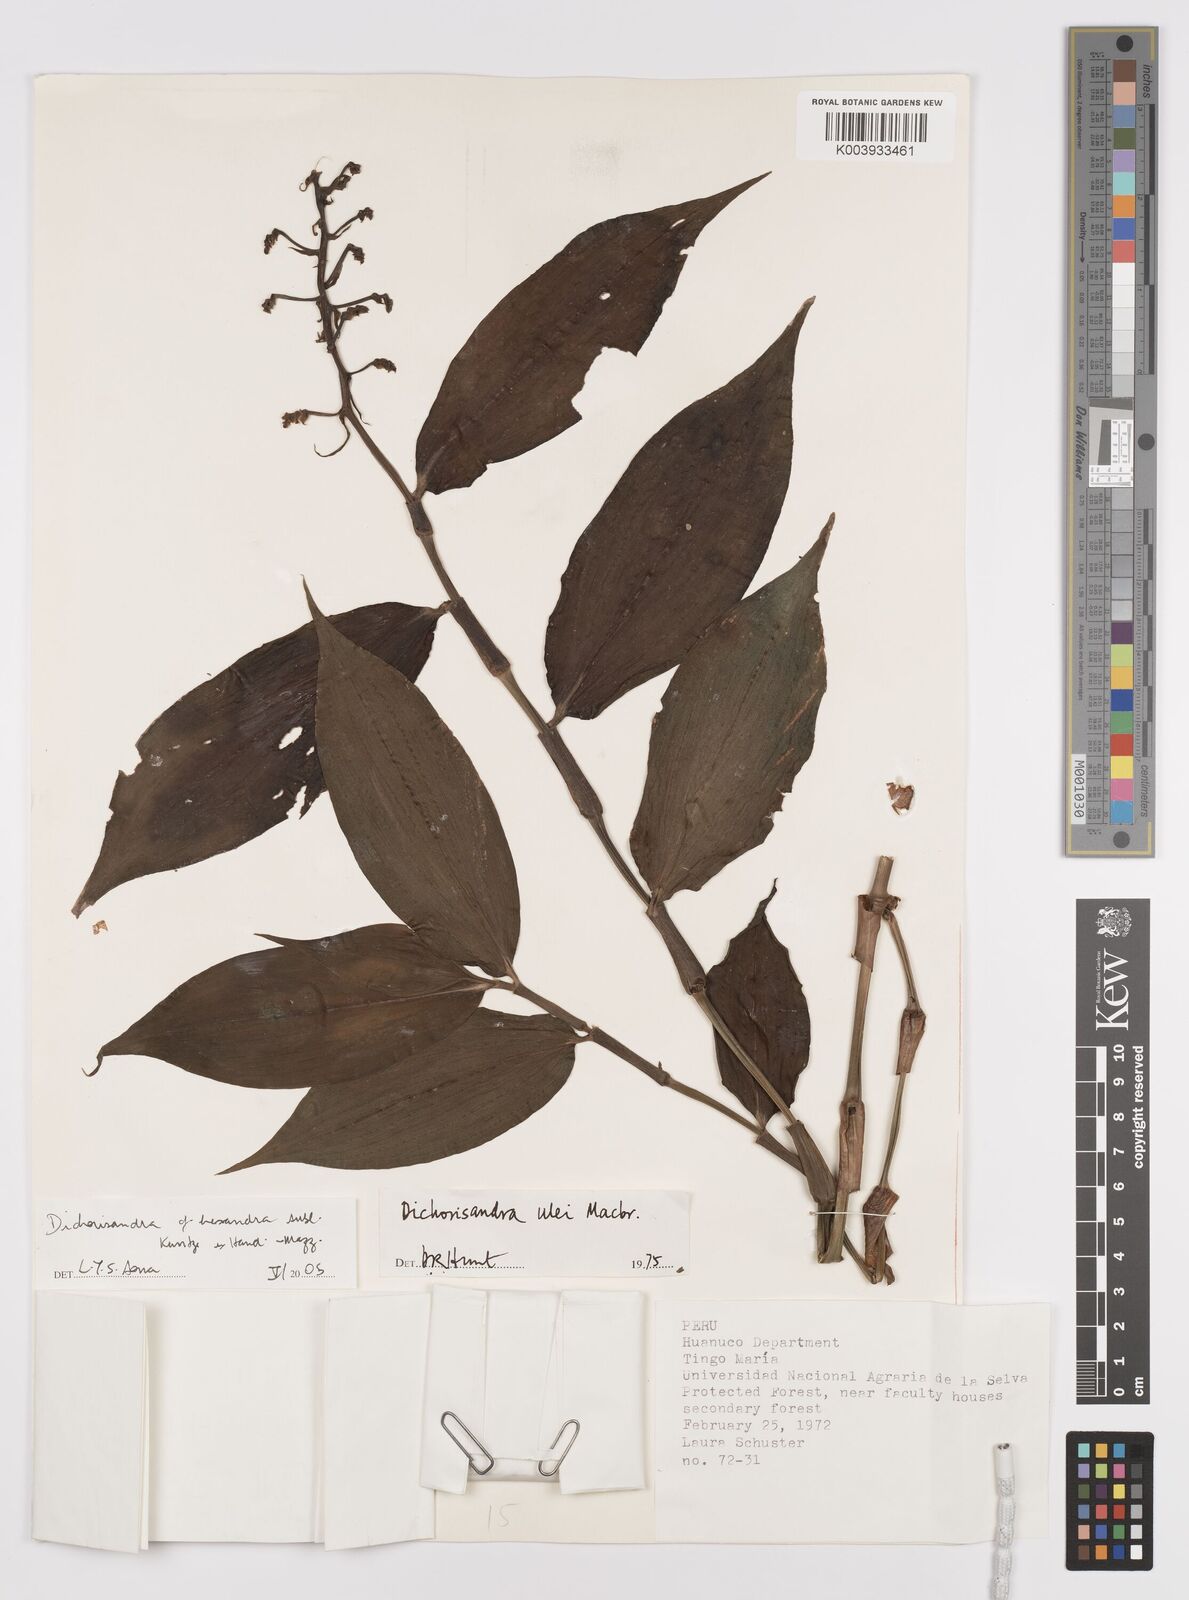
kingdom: Plantae
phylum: Tracheophyta
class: Liliopsida
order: Commelinales
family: Commelinaceae
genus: Dichorisandra
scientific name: Dichorisandra hexandra
